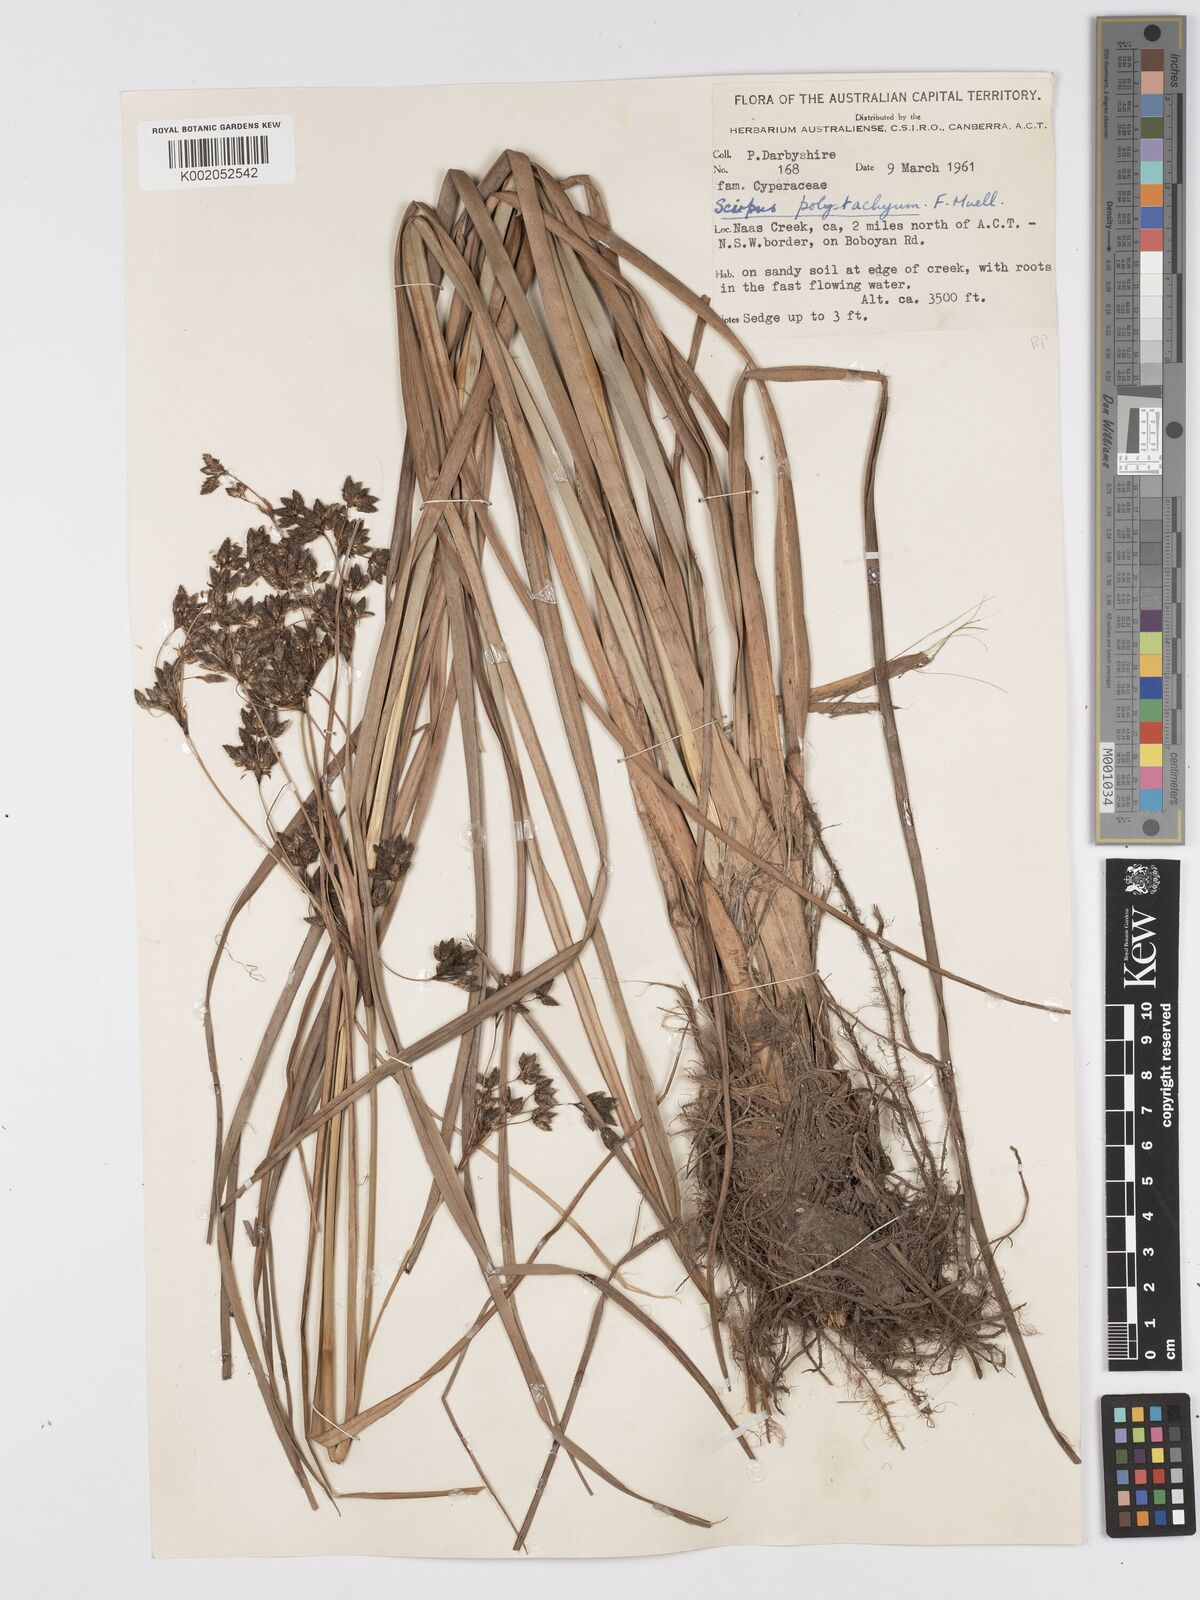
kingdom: Plantae
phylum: Tracheophyta
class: Liliopsida
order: Poales
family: Cyperaceae
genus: Scirpus
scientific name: Scirpus polystachyus
